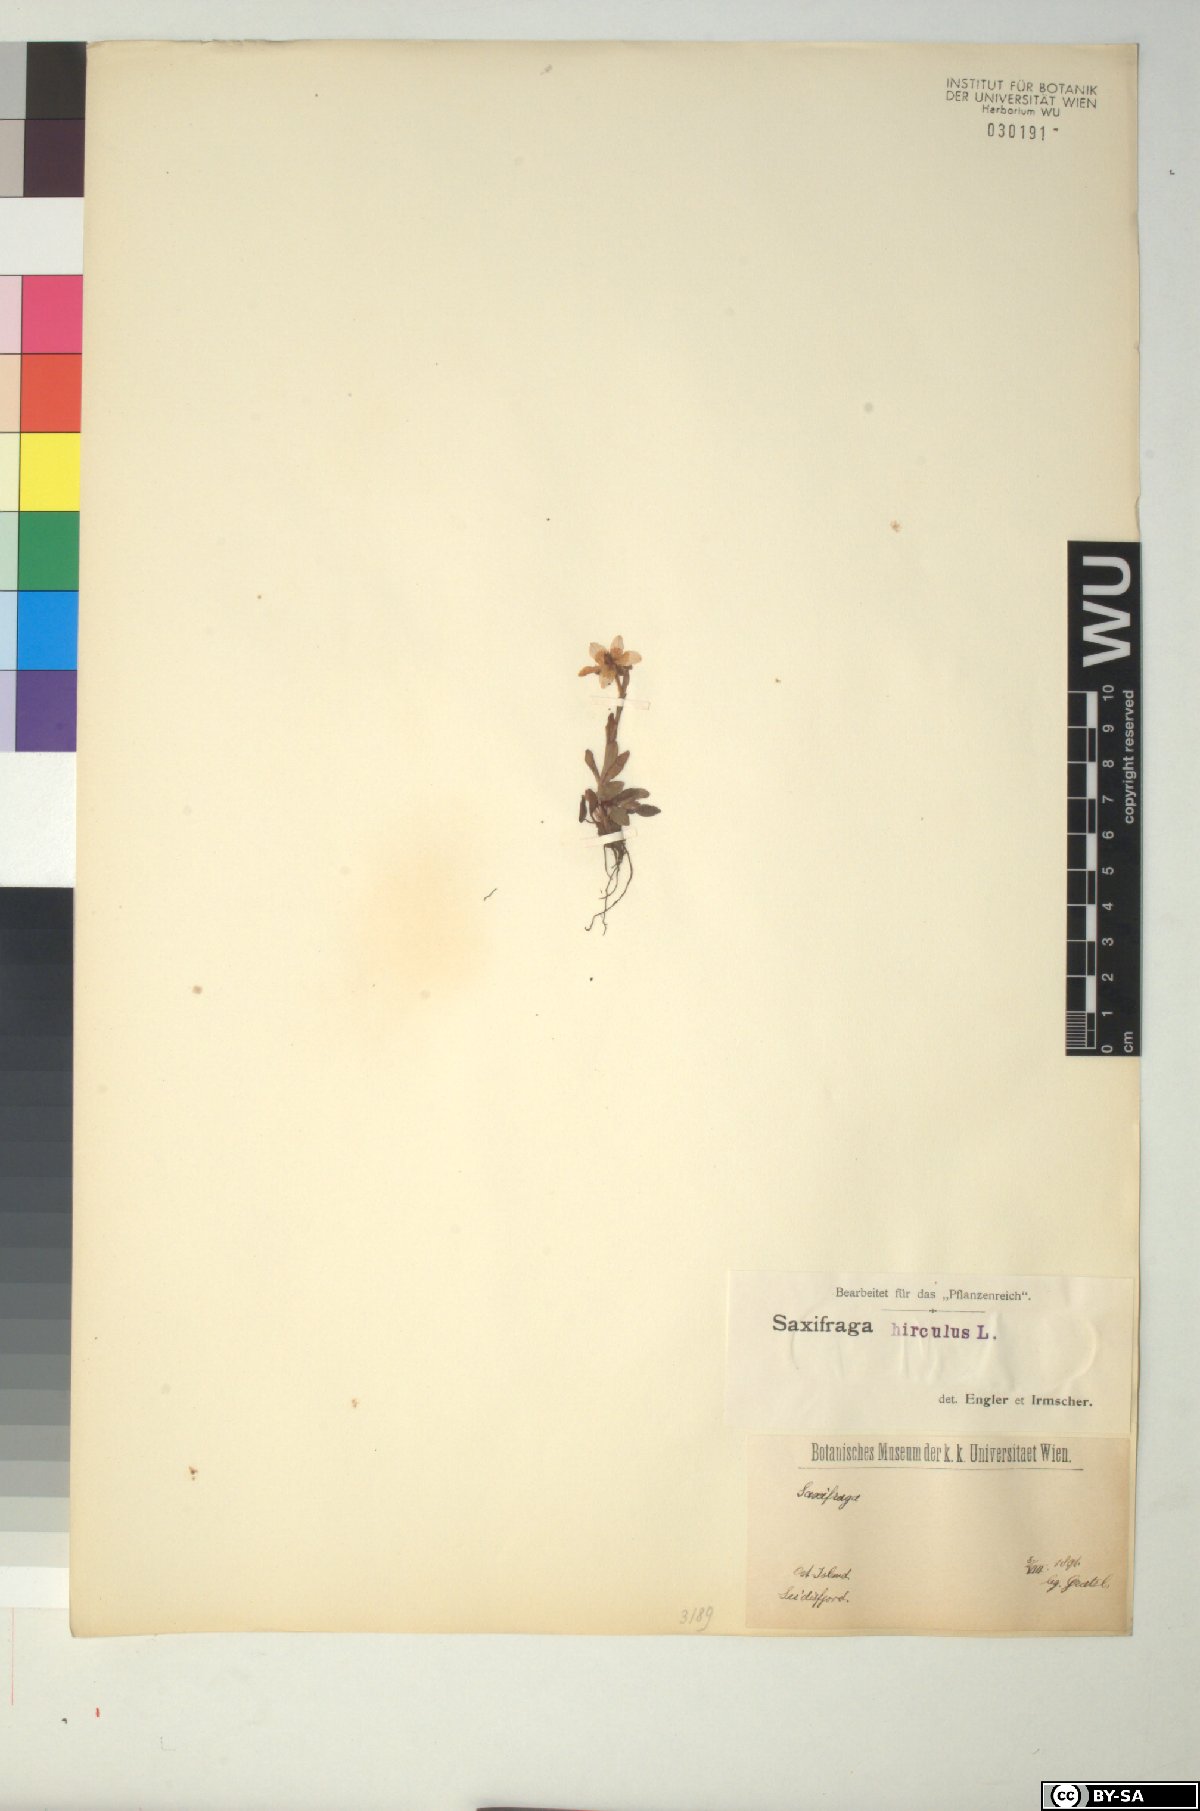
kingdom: Plantae
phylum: Tracheophyta
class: Magnoliopsida
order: Saxifragales
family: Saxifragaceae
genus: Saxifraga
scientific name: Saxifraga hirculus
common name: Yellow marsh saxifrage
